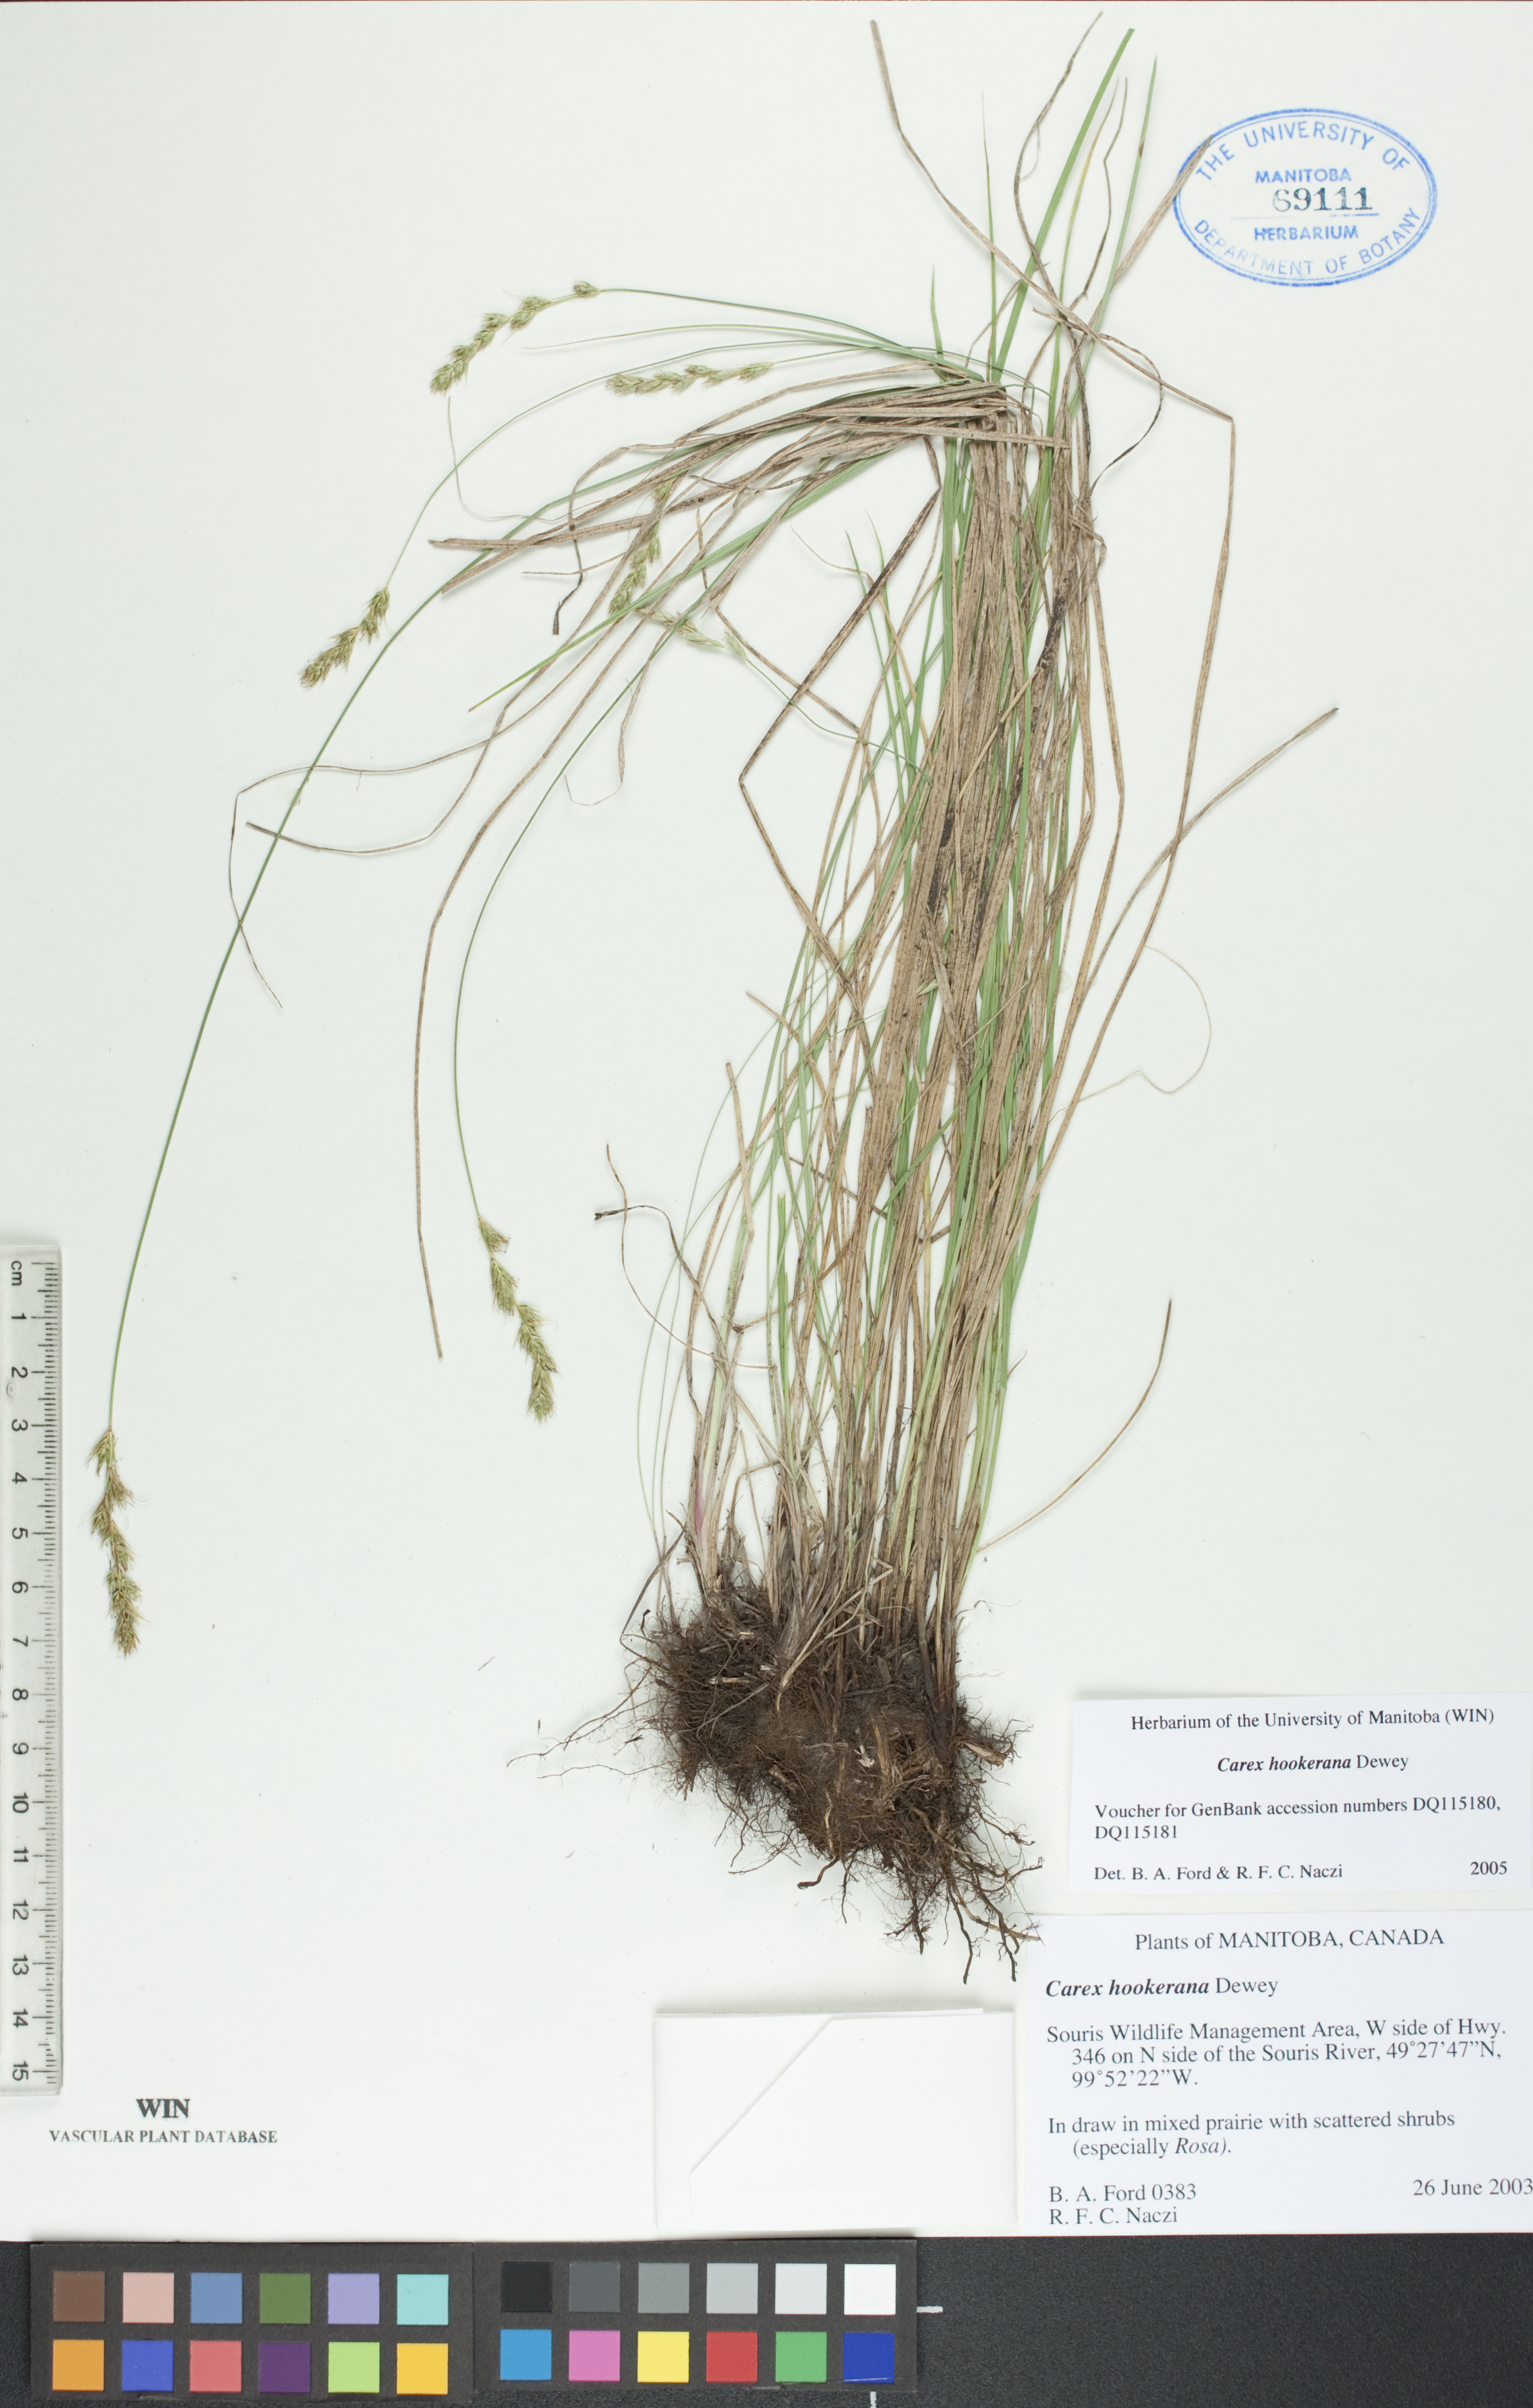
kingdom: Plantae
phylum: Tracheophyta
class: Liliopsida
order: Poales
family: Cyperaceae
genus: Carex
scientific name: Carex hookeriana
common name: Hooker's sedge
